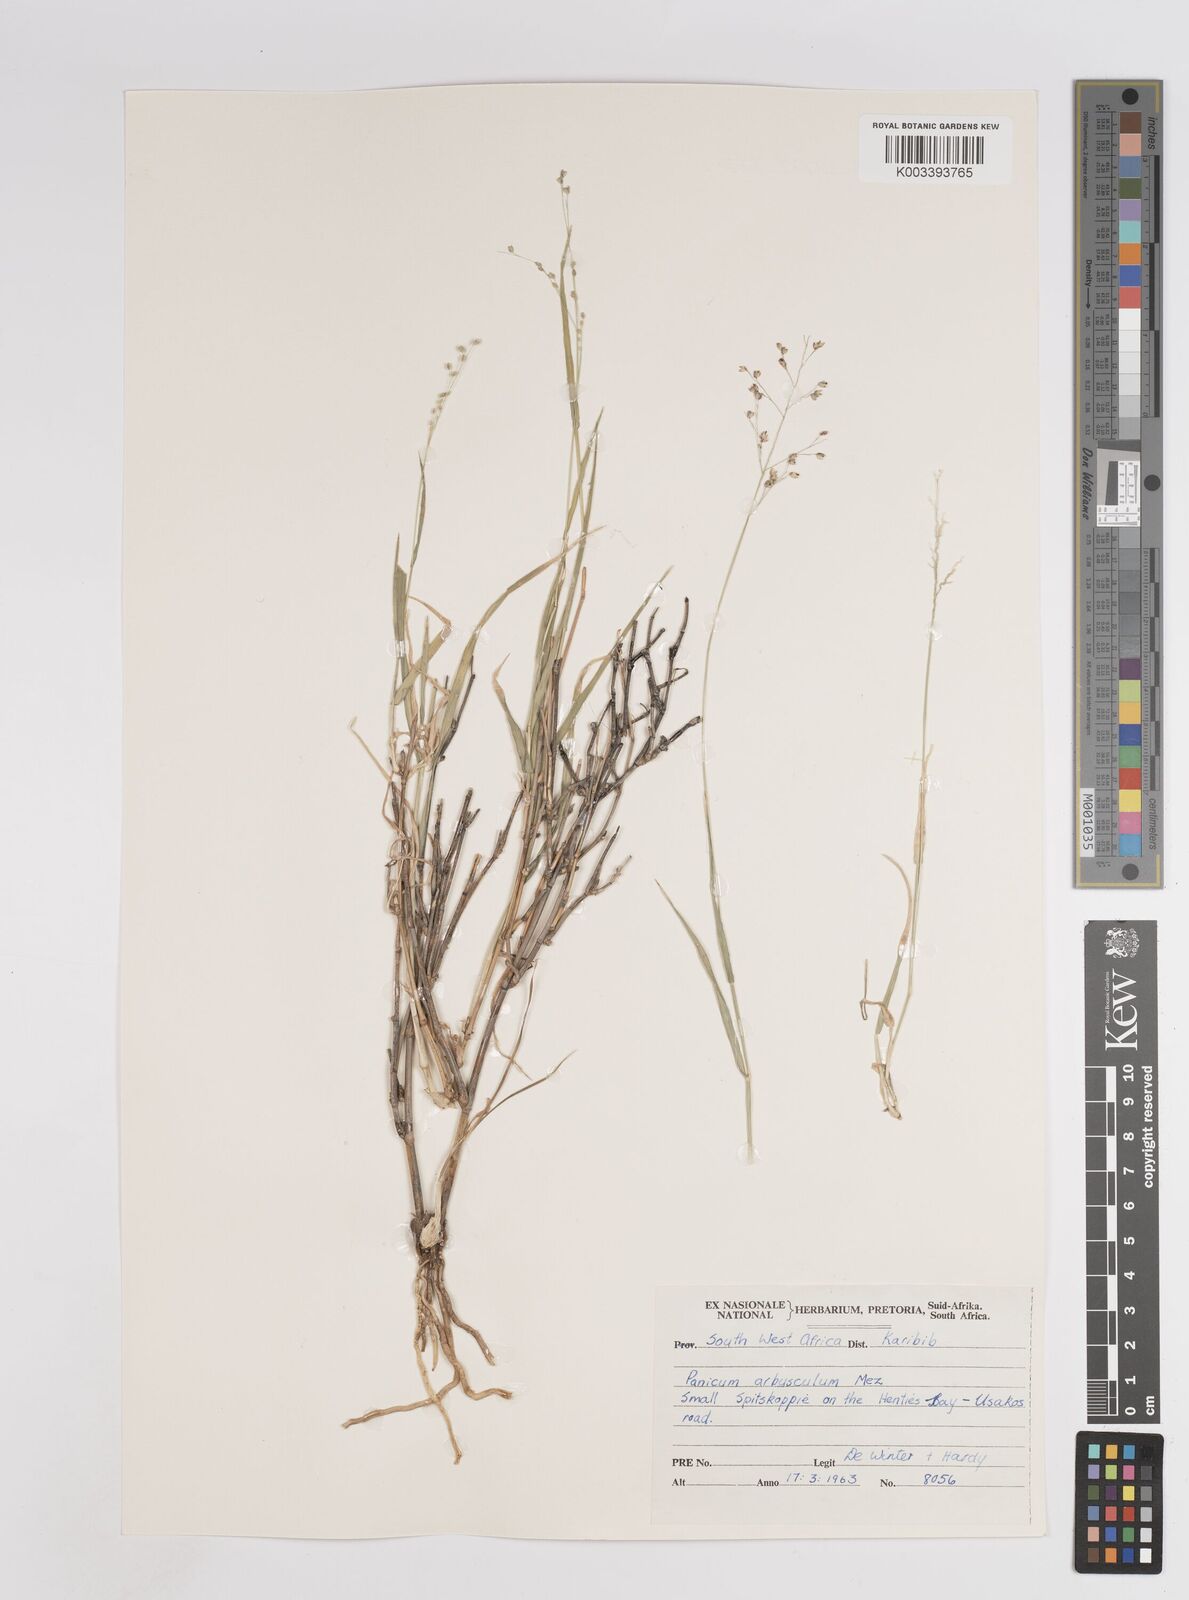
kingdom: Plantae
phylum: Tracheophyta
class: Liliopsida
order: Poales
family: Poaceae
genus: Panicum
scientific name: Panicum arbusculum
